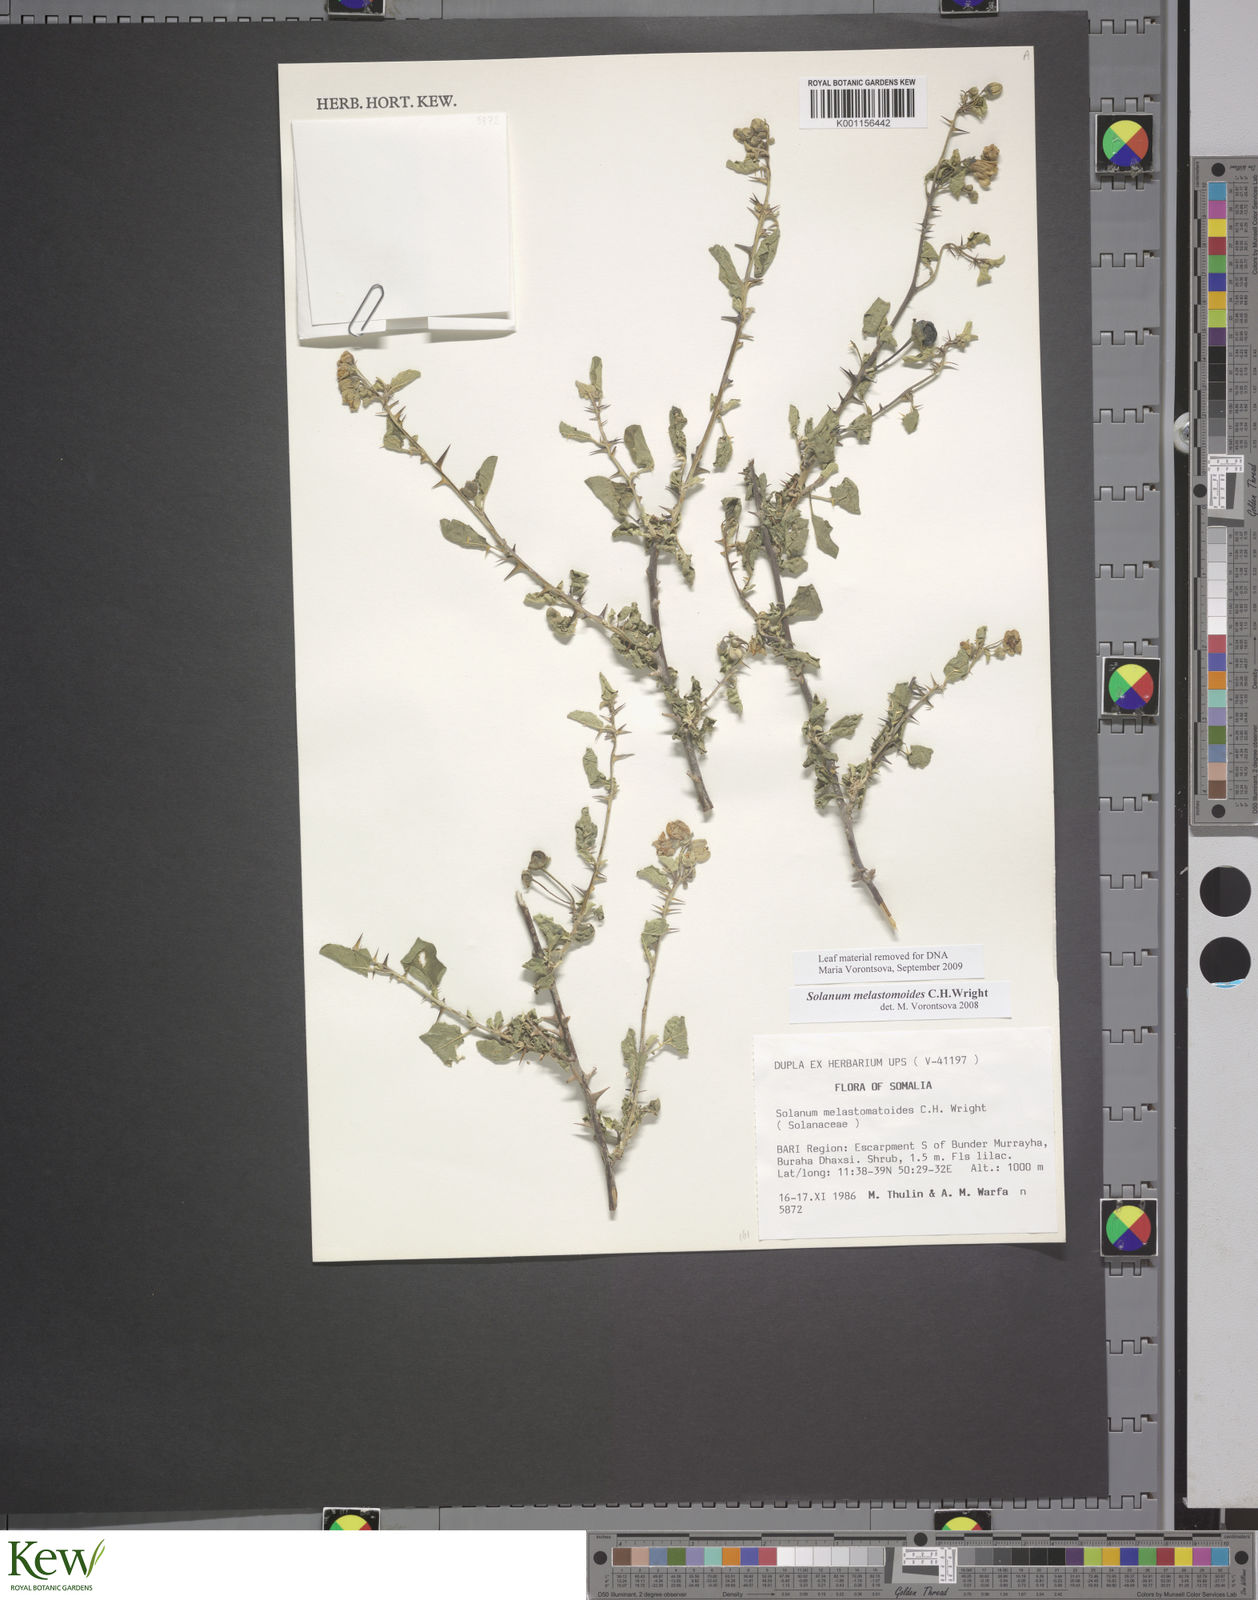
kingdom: Plantae
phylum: Tracheophyta
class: Magnoliopsida
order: Solanales
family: Solanaceae
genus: Solanum
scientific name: Solanum melastomoides
